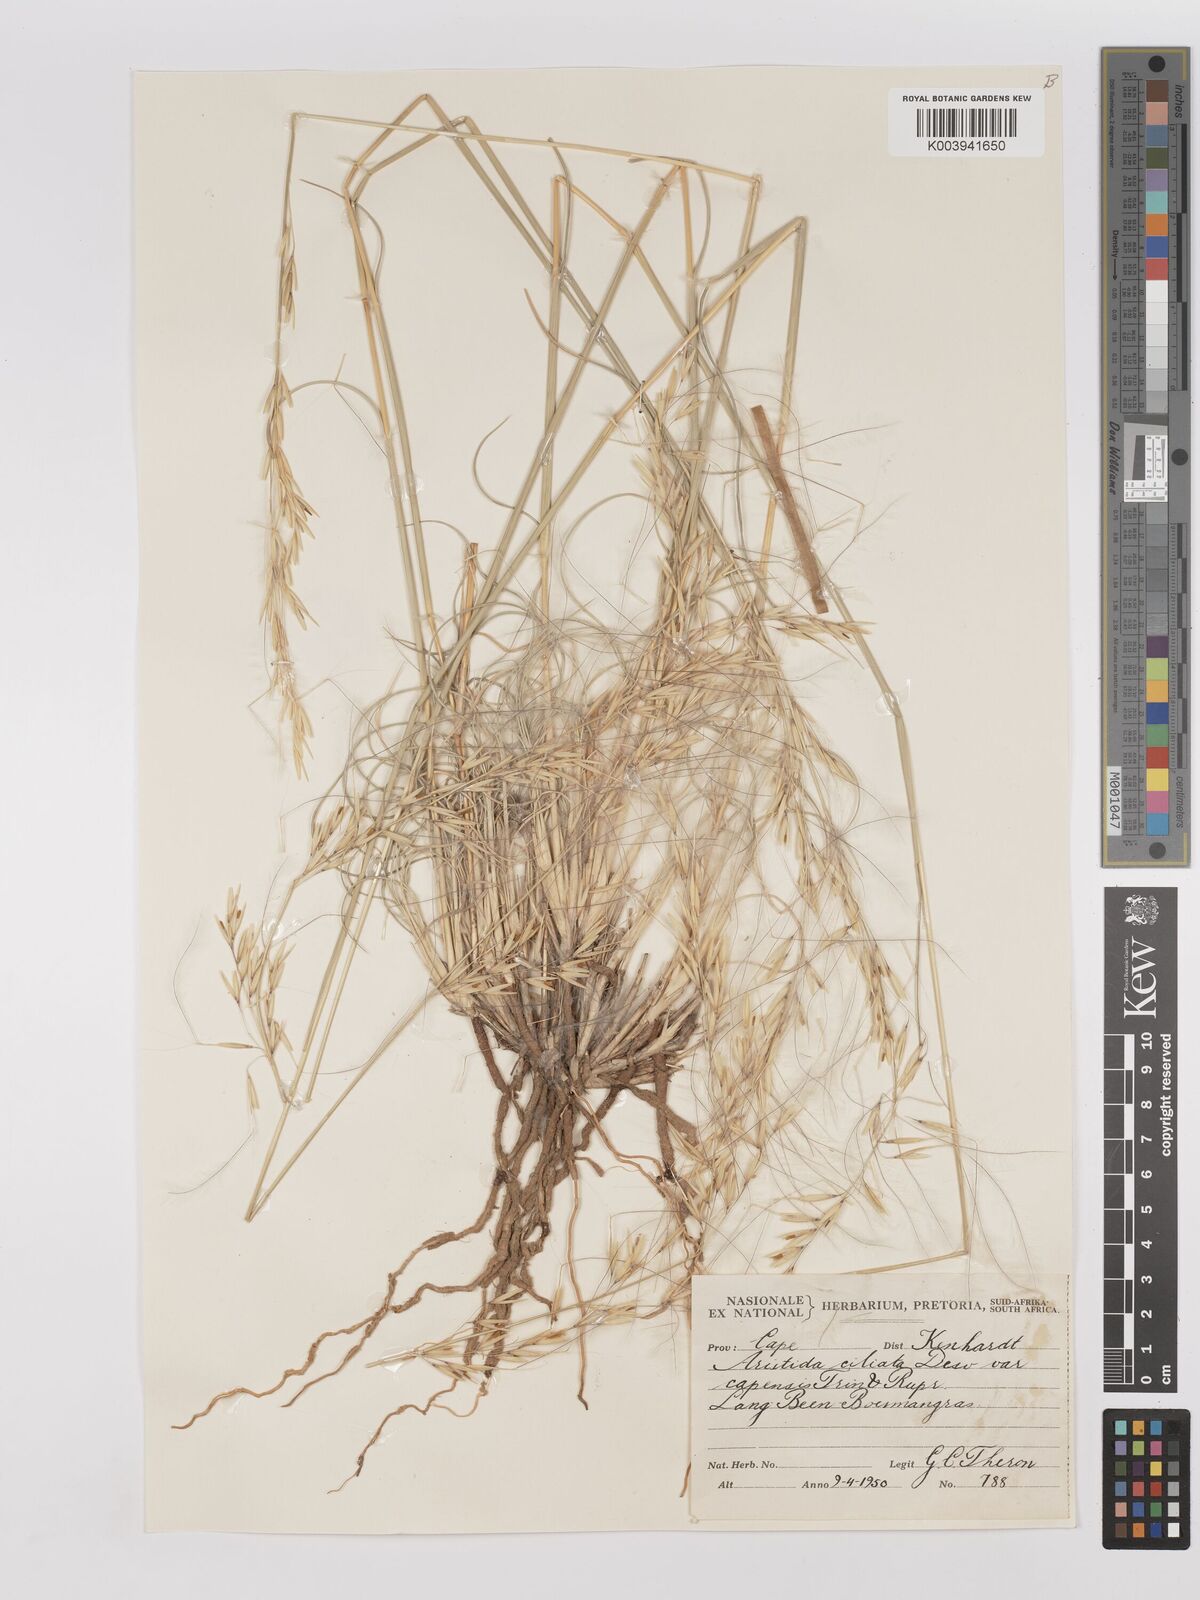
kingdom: Plantae
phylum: Tracheophyta
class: Liliopsida
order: Poales
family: Poaceae
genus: Stipagrostis
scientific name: Stipagrostis ciliata
